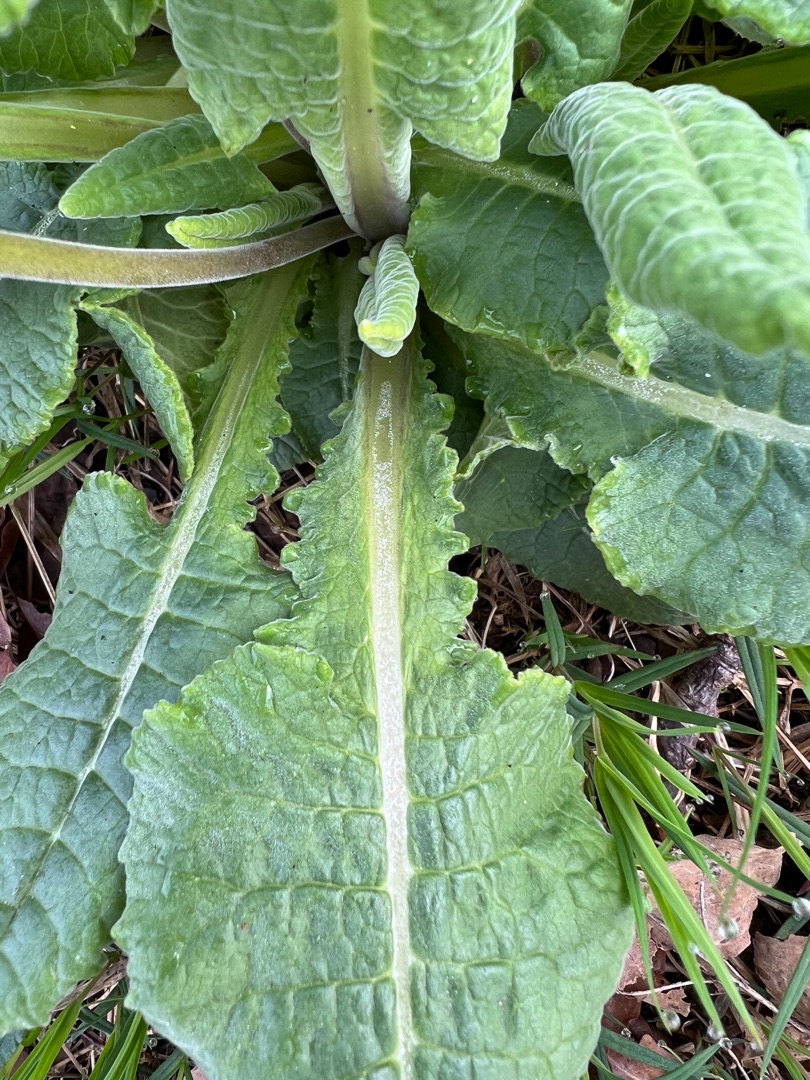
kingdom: Plantae
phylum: Tracheophyta
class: Magnoliopsida
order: Ericales
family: Primulaceae
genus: Primula
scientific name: Primula veris
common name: Hulkravet kodriver
